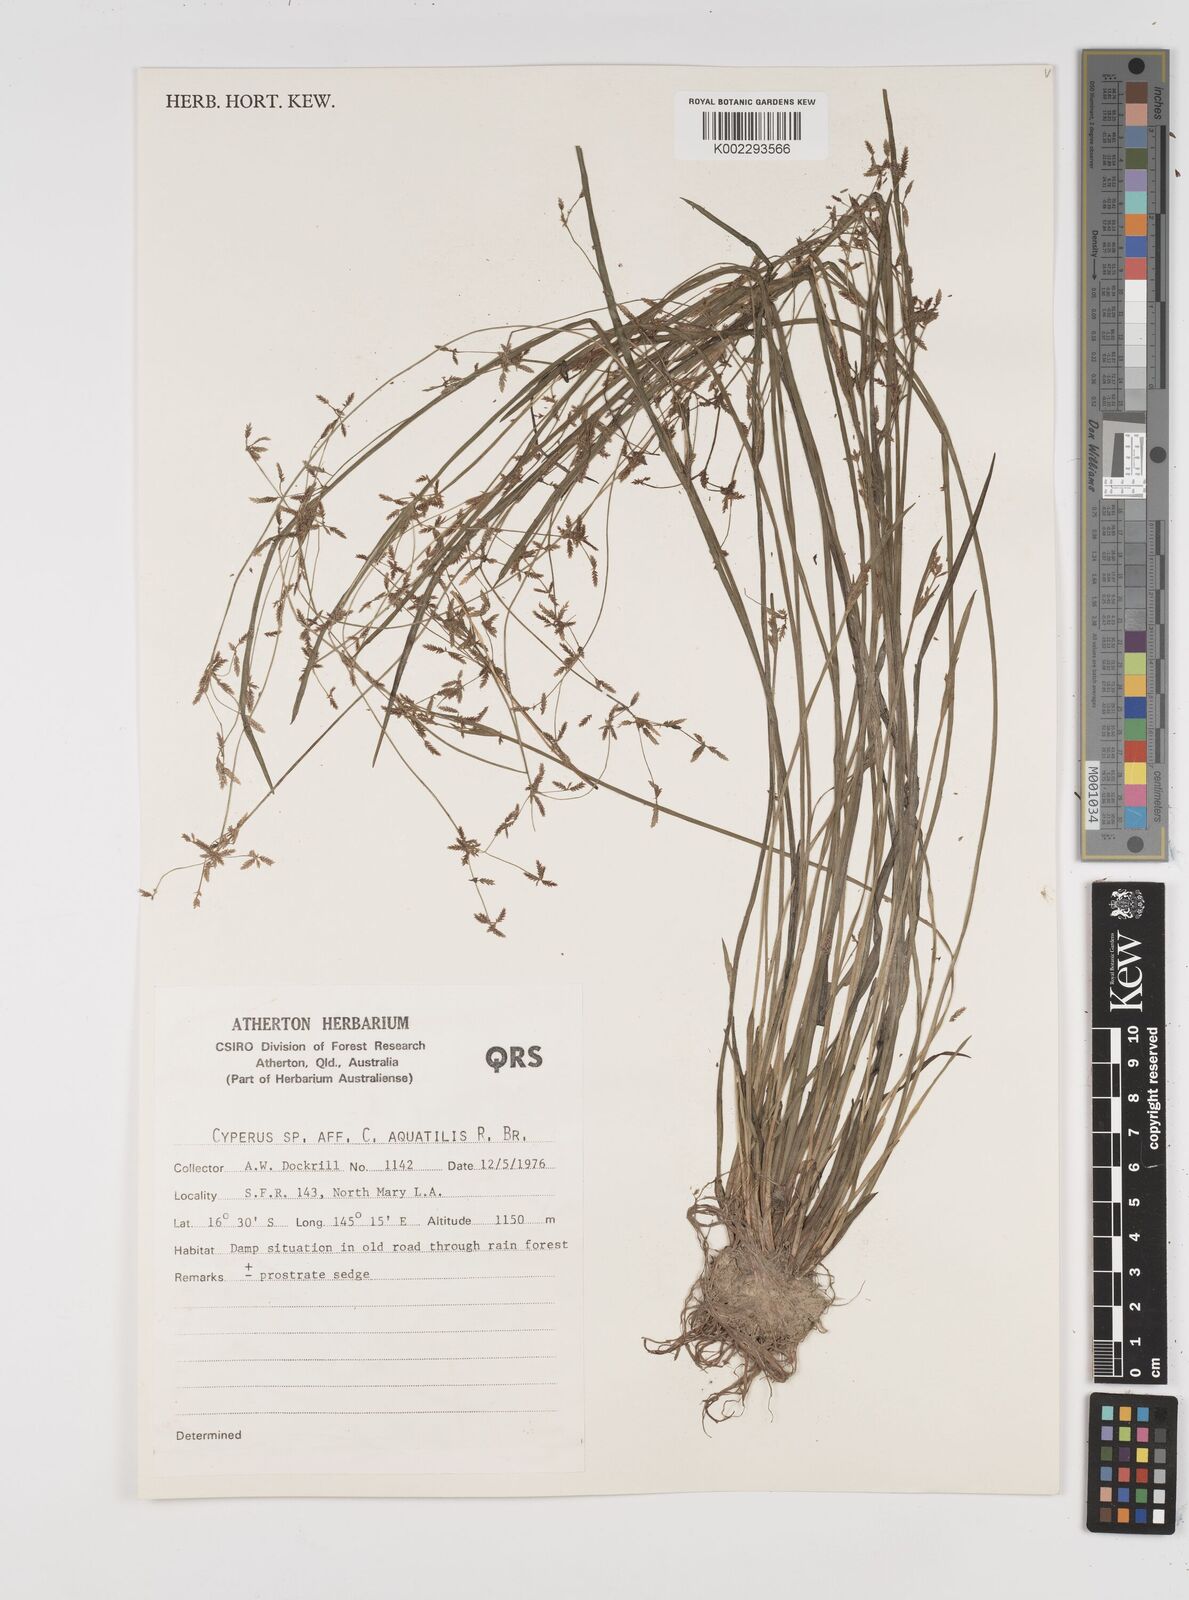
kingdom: Plantae
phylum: Tracheophyta
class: Liliopsida
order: Poales
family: Cyperaceae
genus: Cyperus
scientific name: Cyperus aquatilis
